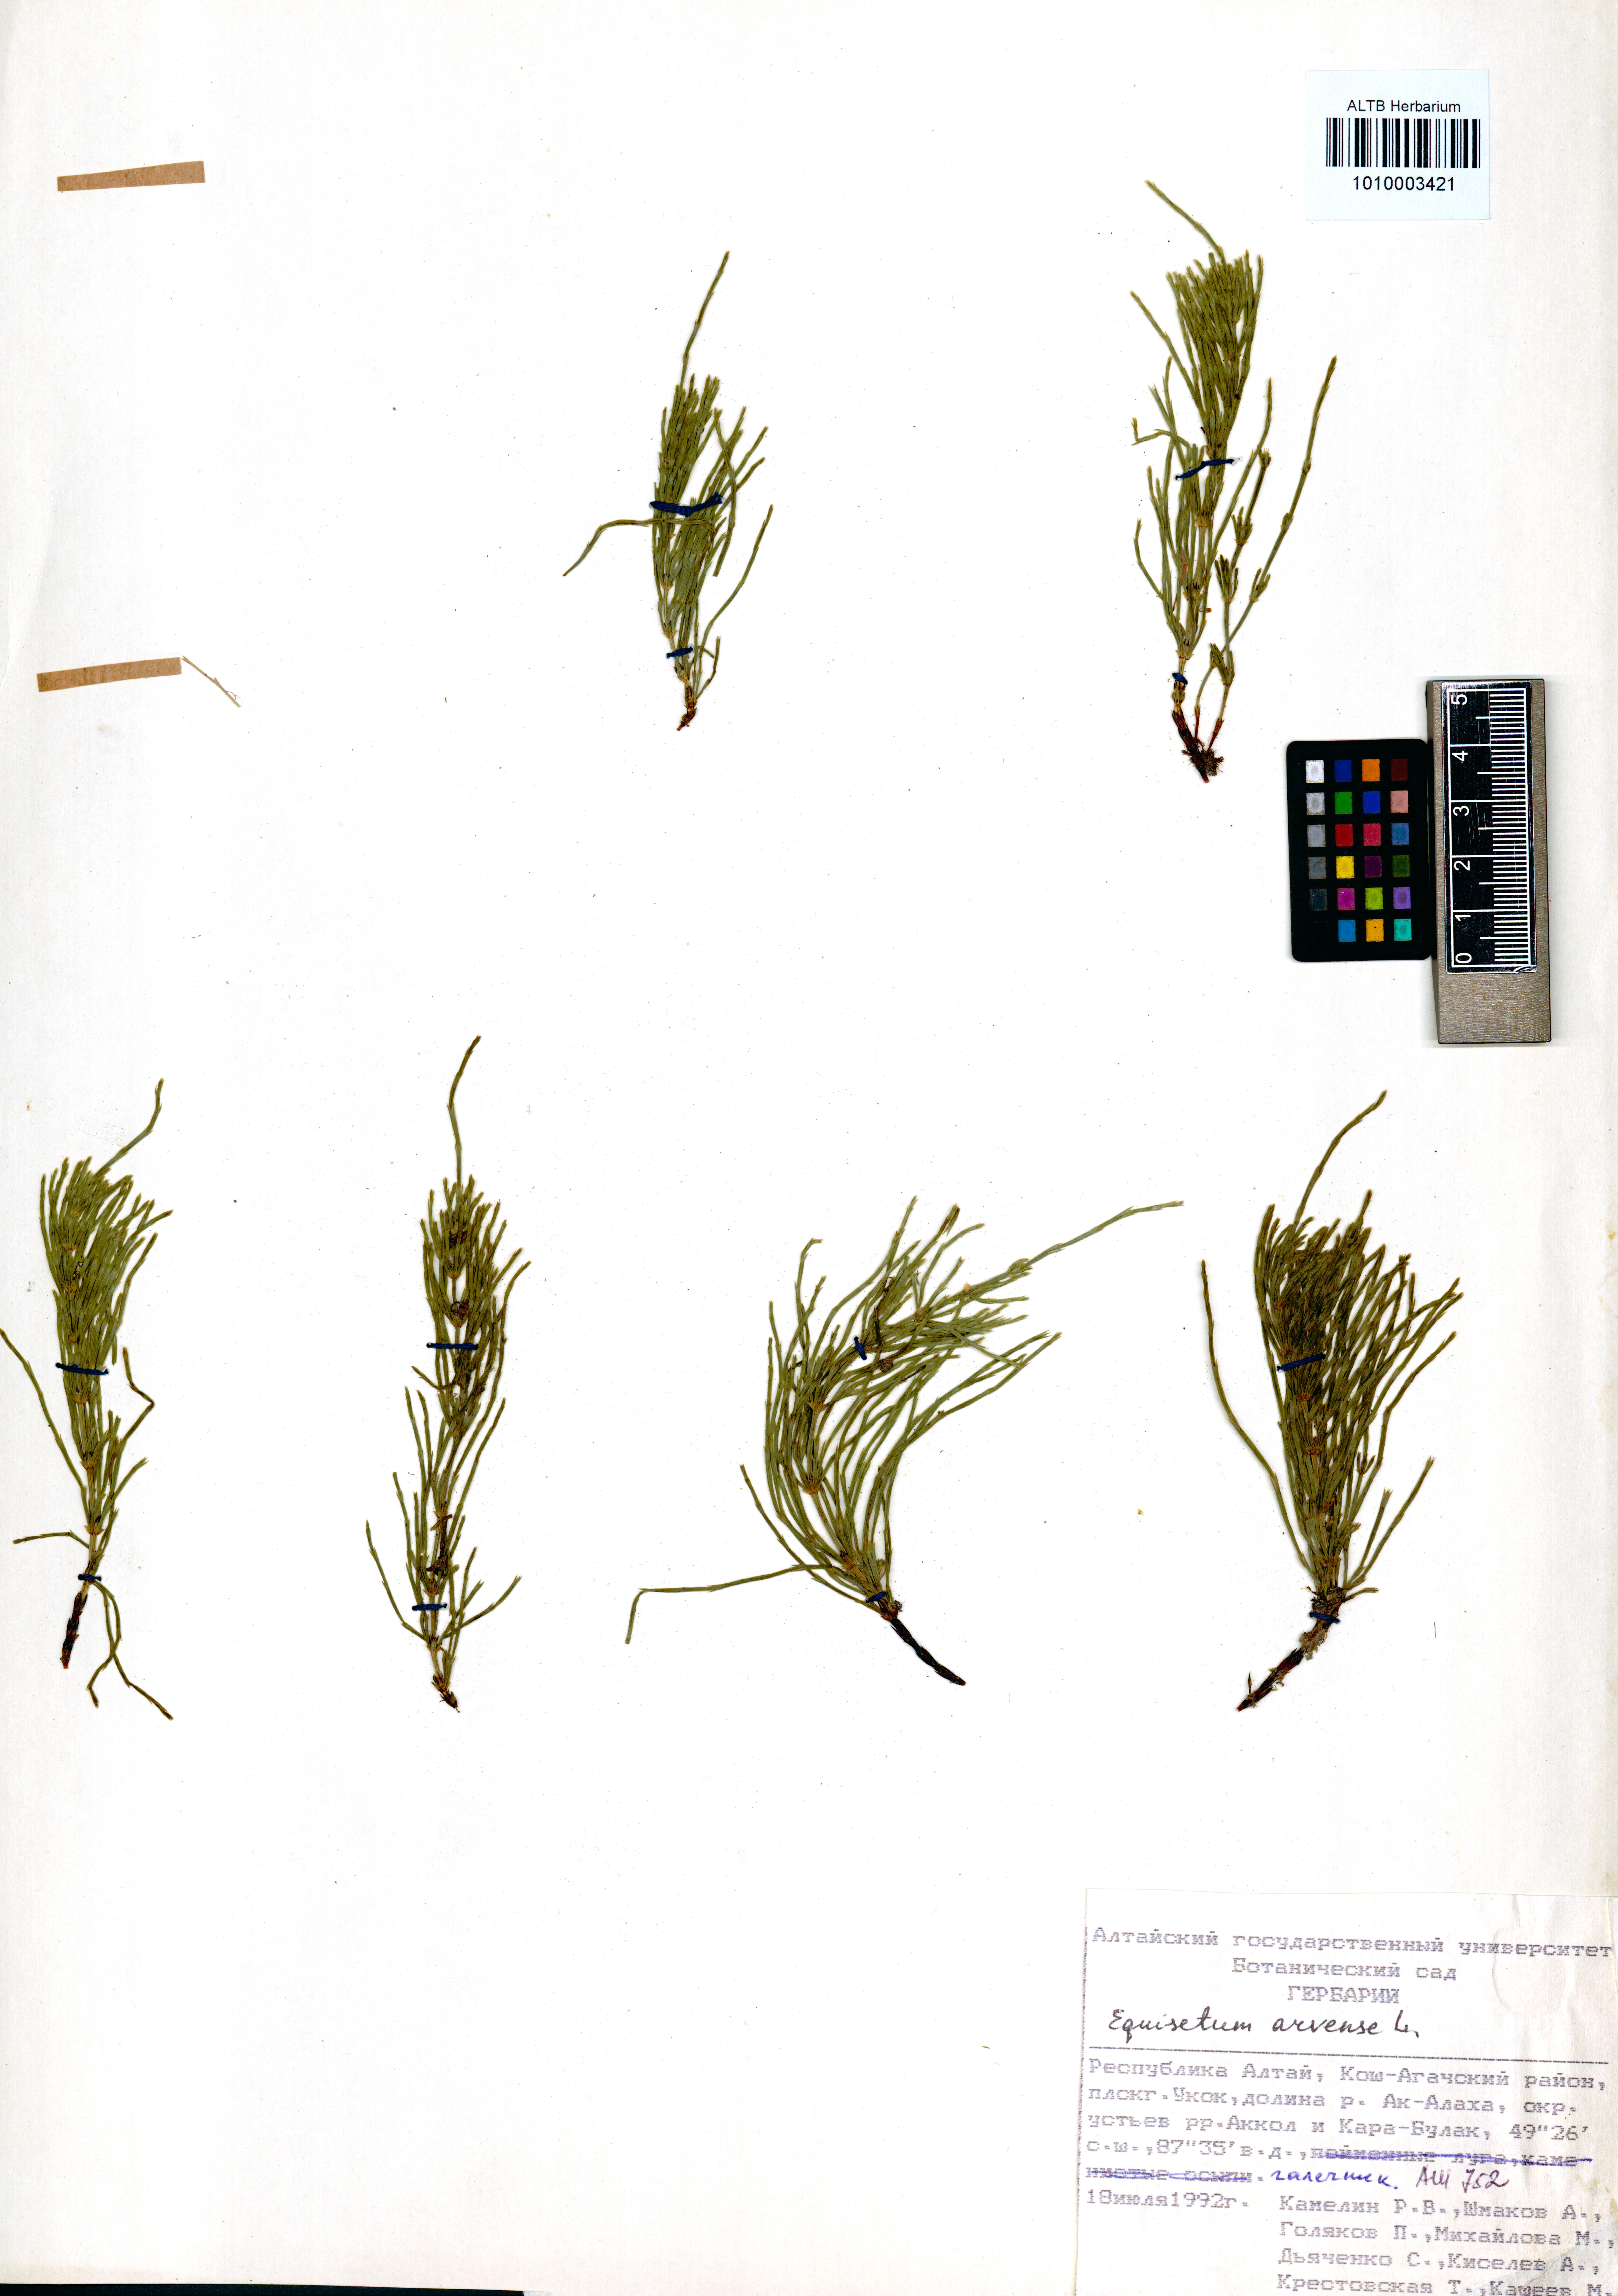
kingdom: Plantae
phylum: Tracheophyta
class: Polypodiopsida
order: Equisetales
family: Equisetaceae
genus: Equisetum
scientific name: Equisetum arvense
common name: Field horsetail
